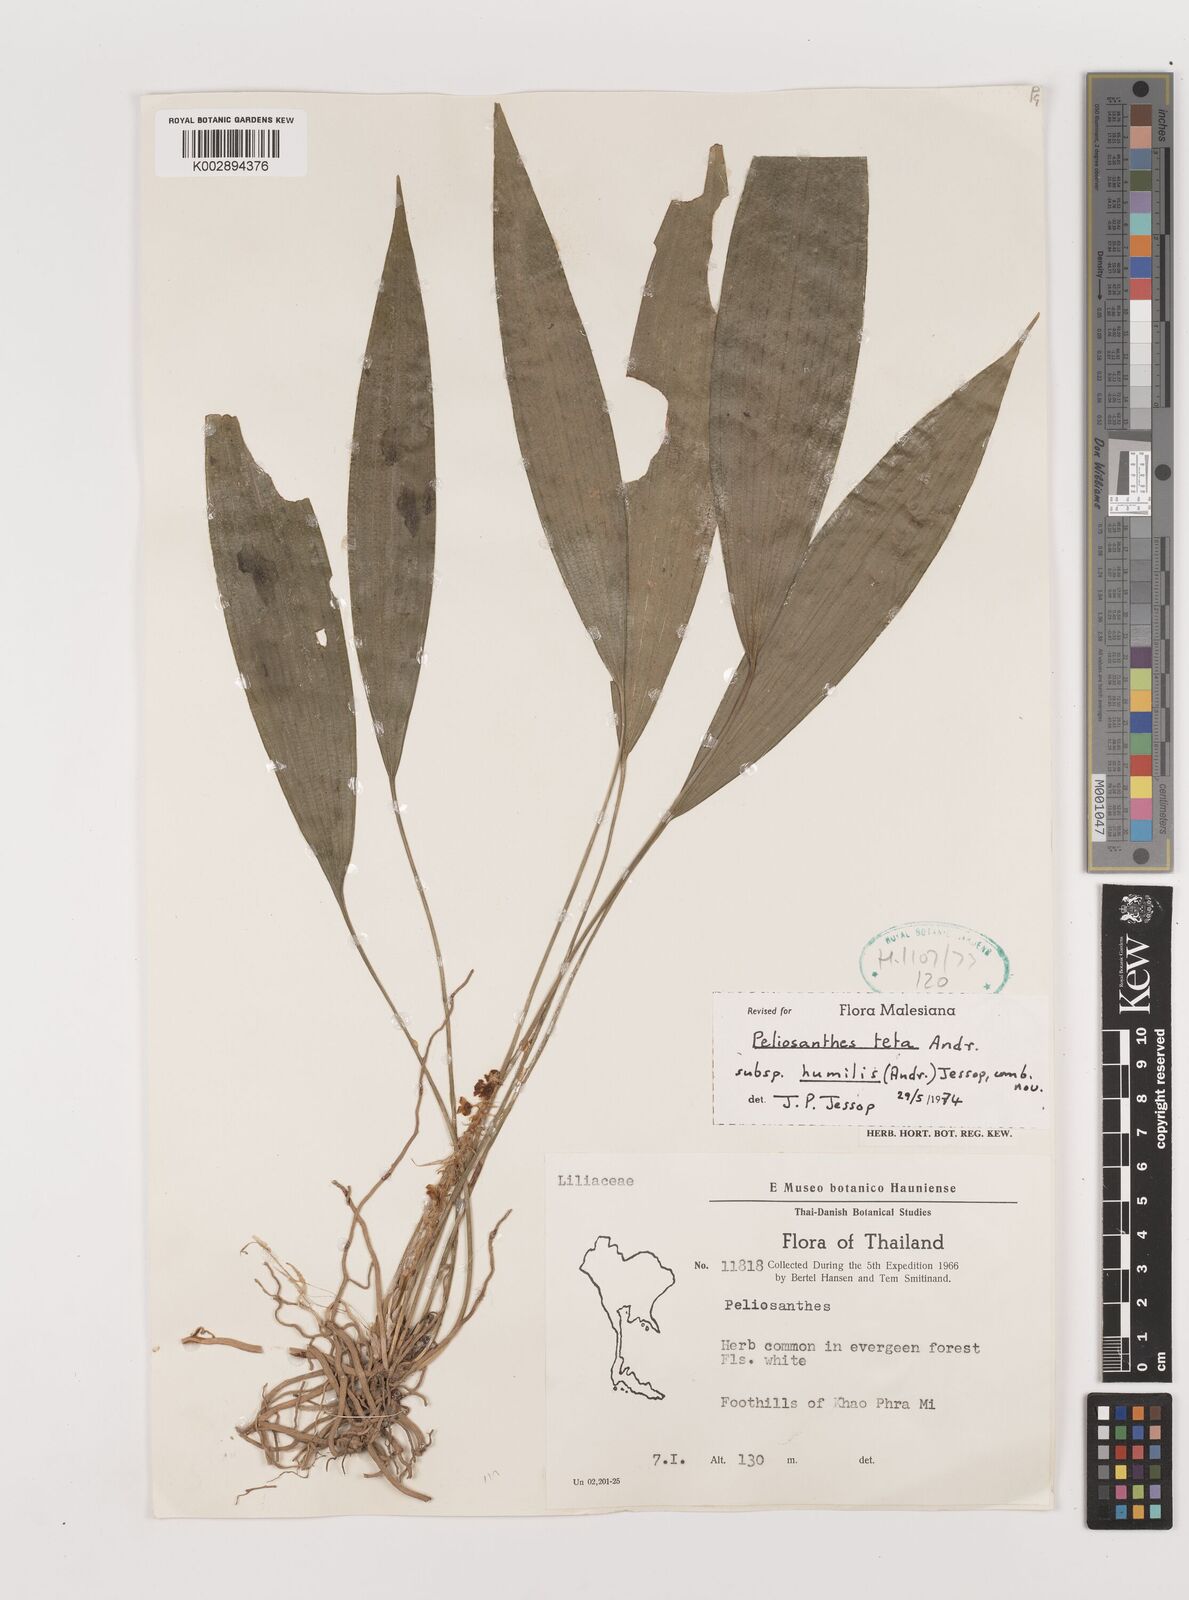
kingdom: Plantae
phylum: Tracheophyta
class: Liliopsida
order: Asparagales
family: Asparagaceae
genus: Peliosanthes
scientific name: Peliosanthes teta
